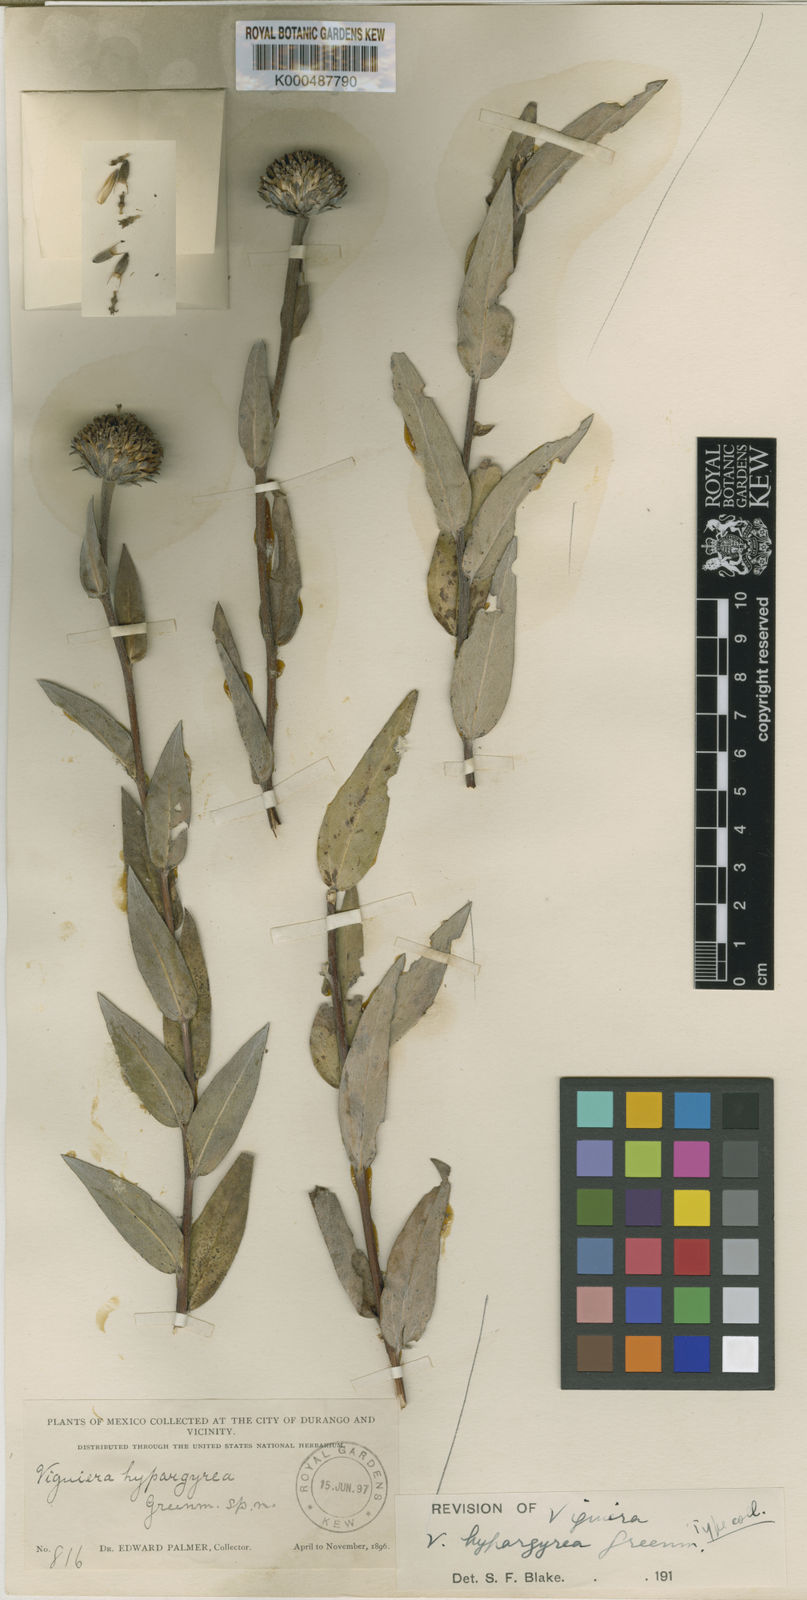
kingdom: Plantae
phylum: Tracheophyta
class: Magnoliopsida
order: Asterales
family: Asteraceae
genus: Gonzalezia
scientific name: Gonzalezia hypargyrea
